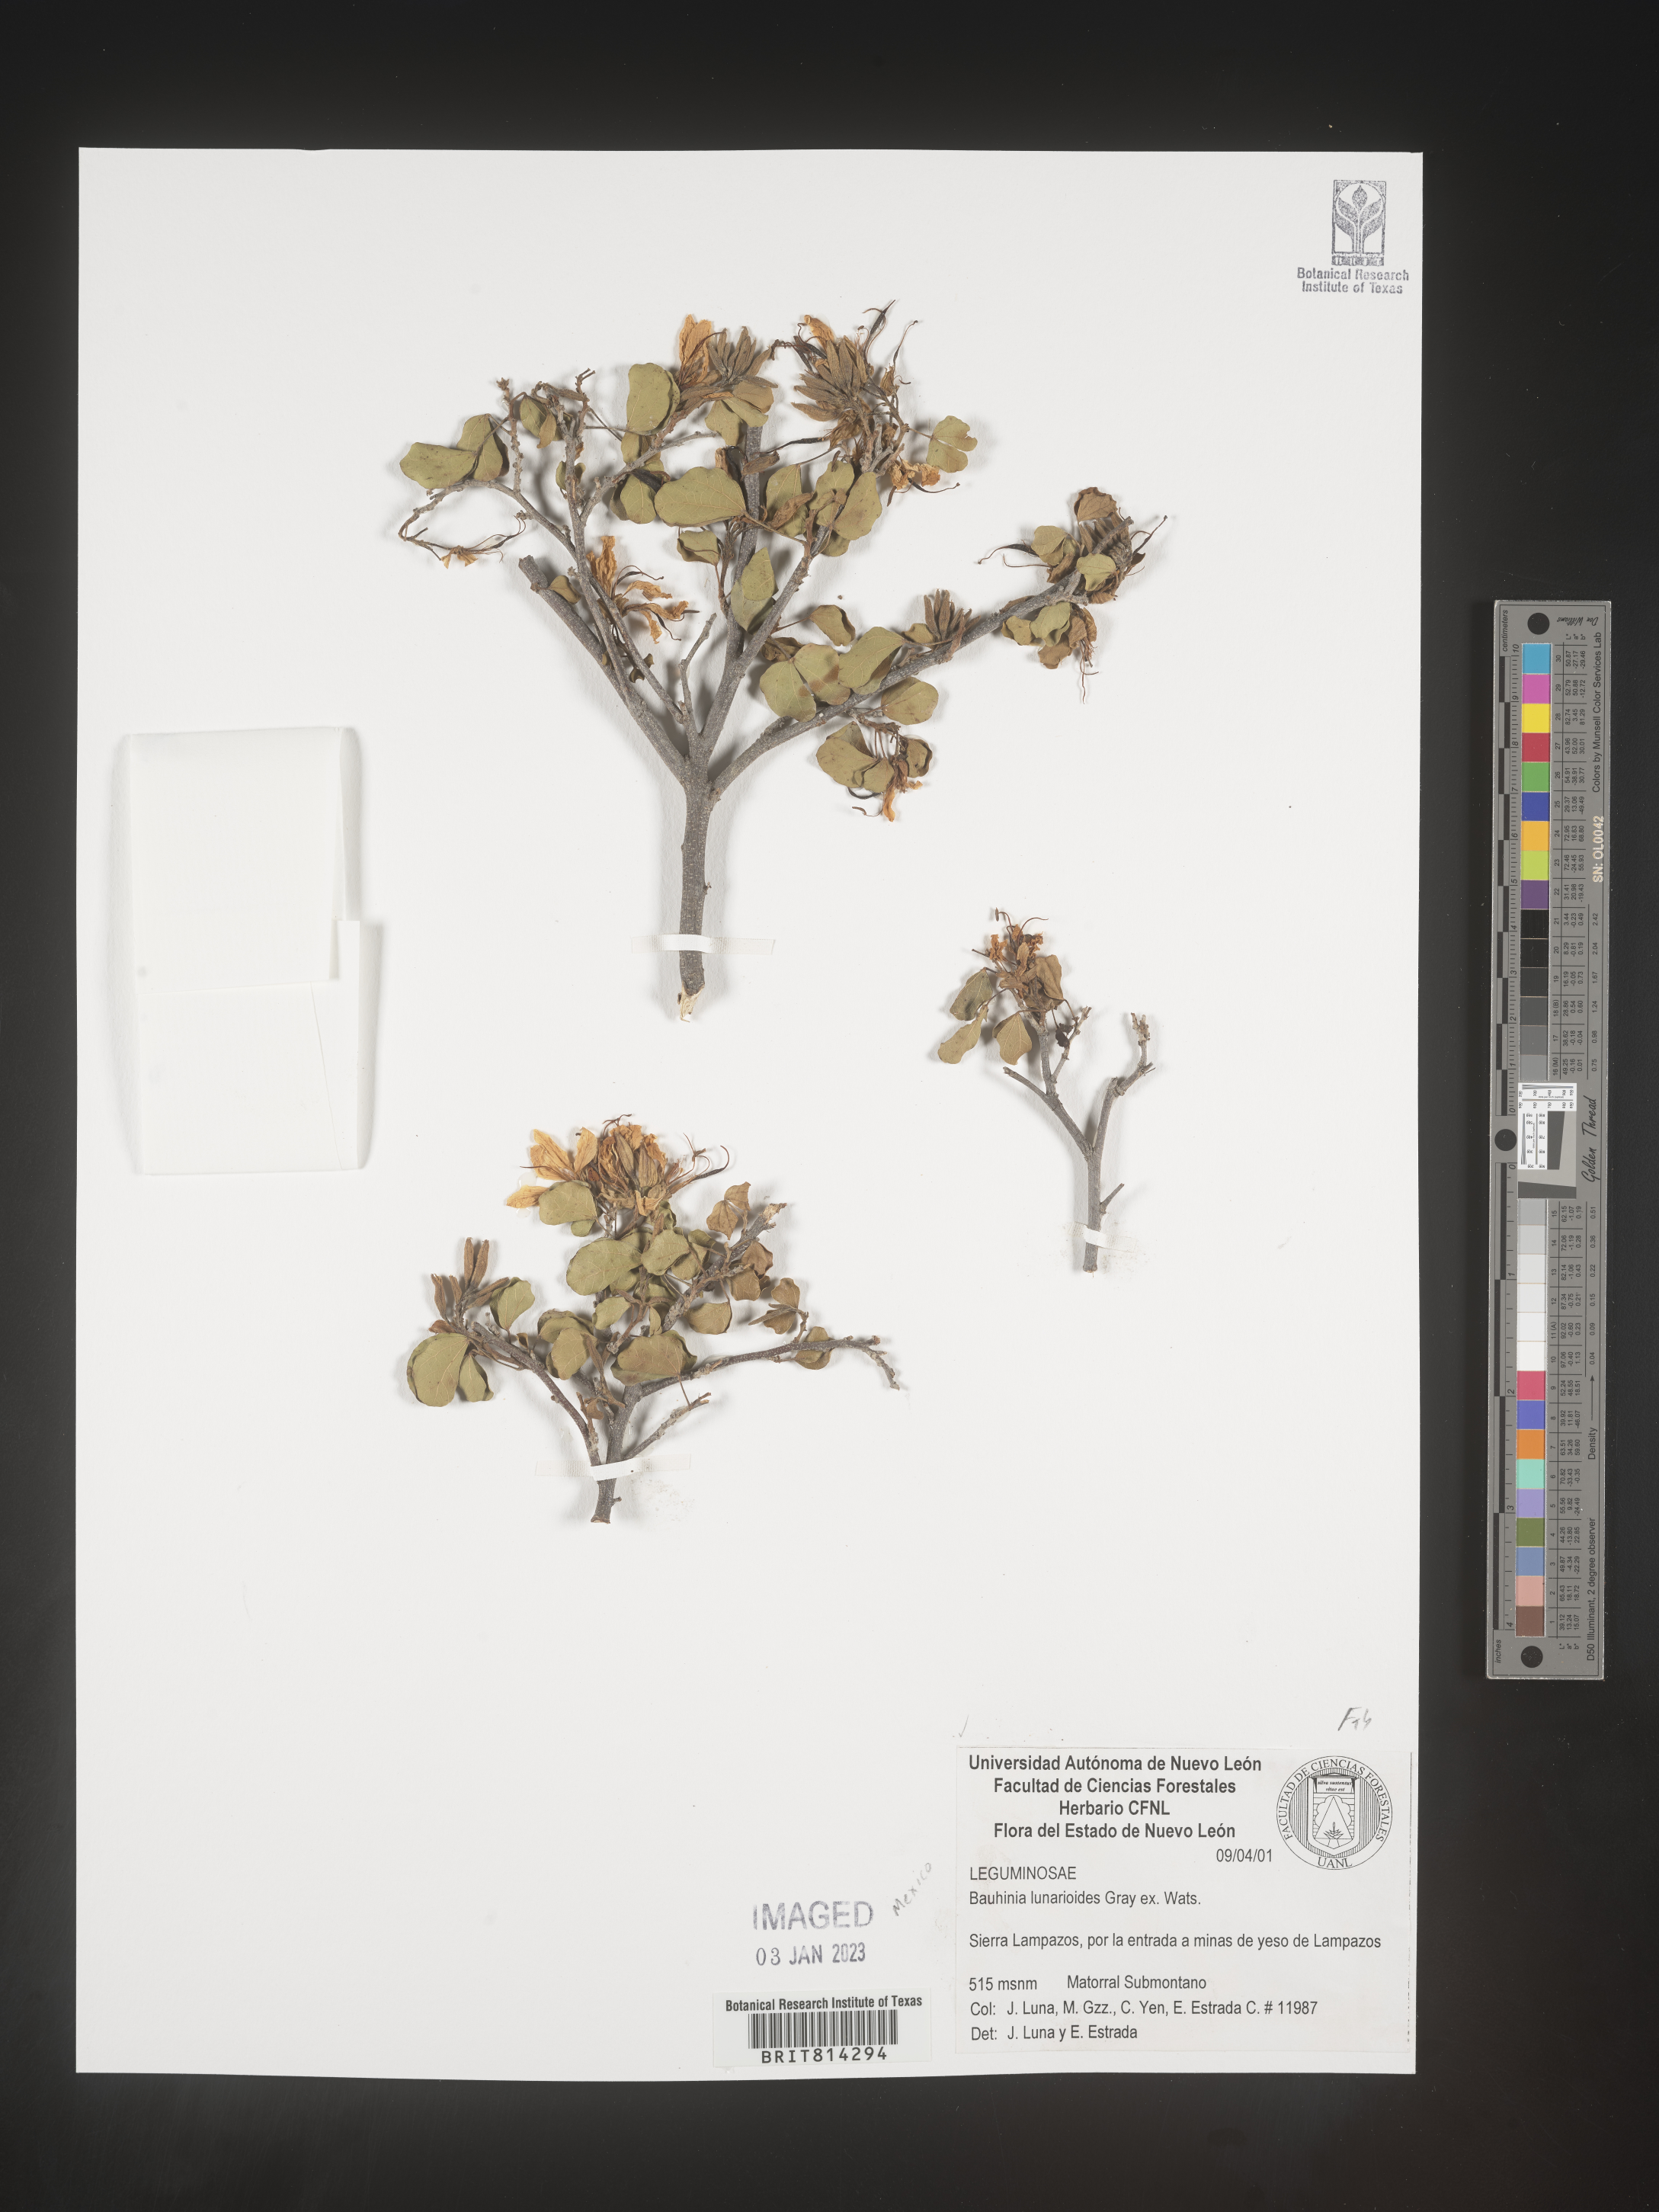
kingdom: Plantae
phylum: Tracheophyta
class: Magnoliopsida
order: Fabales
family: Fabaceae
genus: Bauhinia
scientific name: Bauhinia
